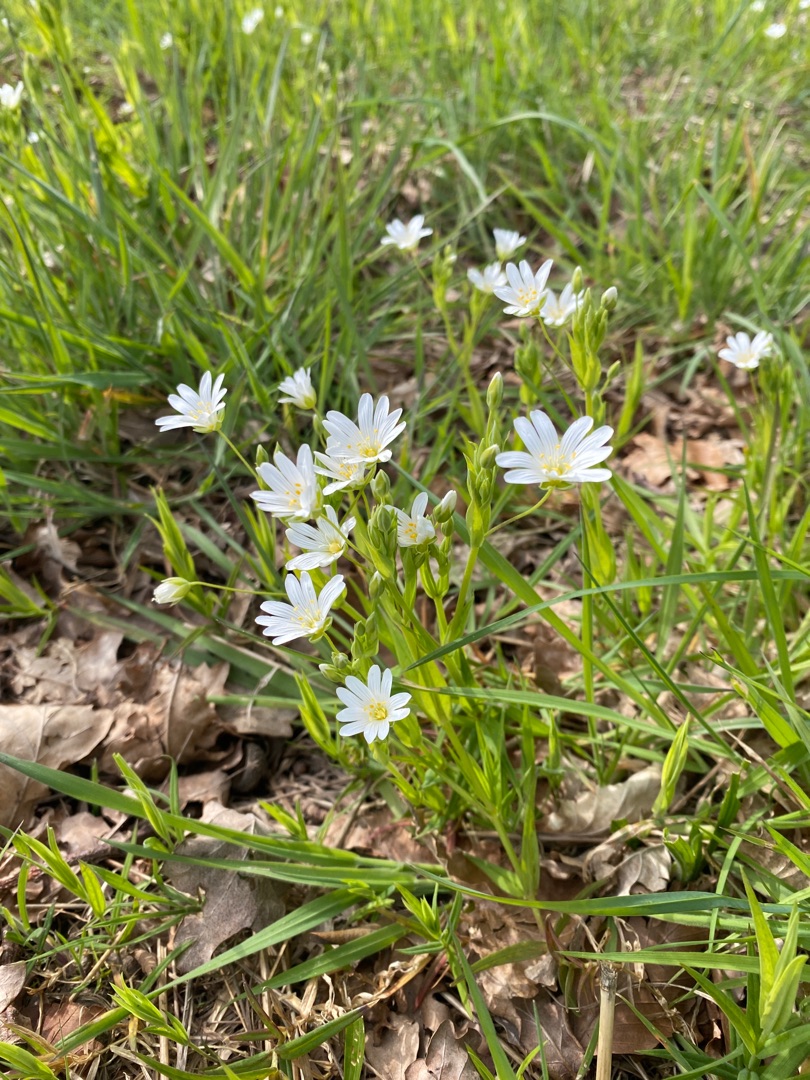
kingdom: Plantae
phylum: Tracheophyta
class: Magnoliopsida
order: Caryophyllales
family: Caryophyllaceae
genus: Rabelera
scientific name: Rabelera holostea
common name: Stor fladstjerne
